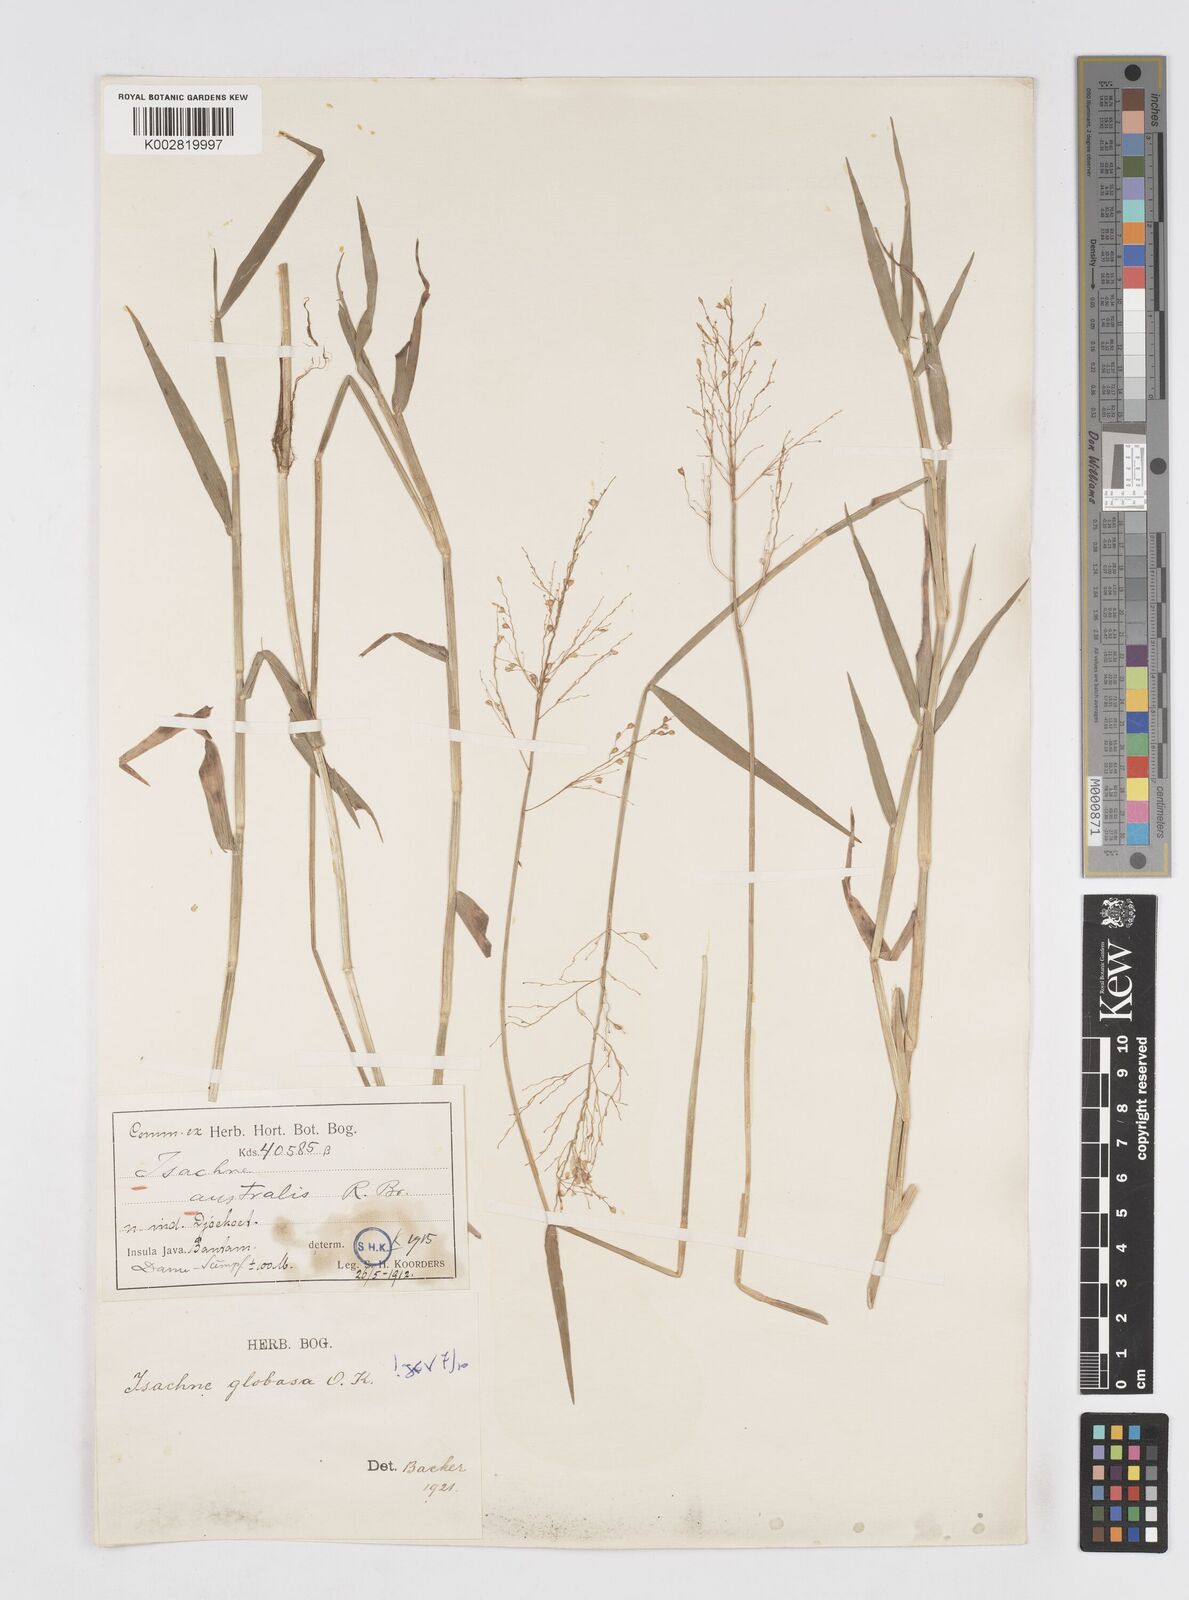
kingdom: Plantae
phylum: Tracheophyta
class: Liliopsida
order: Poales
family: Poaceae
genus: Isachne
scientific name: Isachne globosa
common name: Swamp millet
